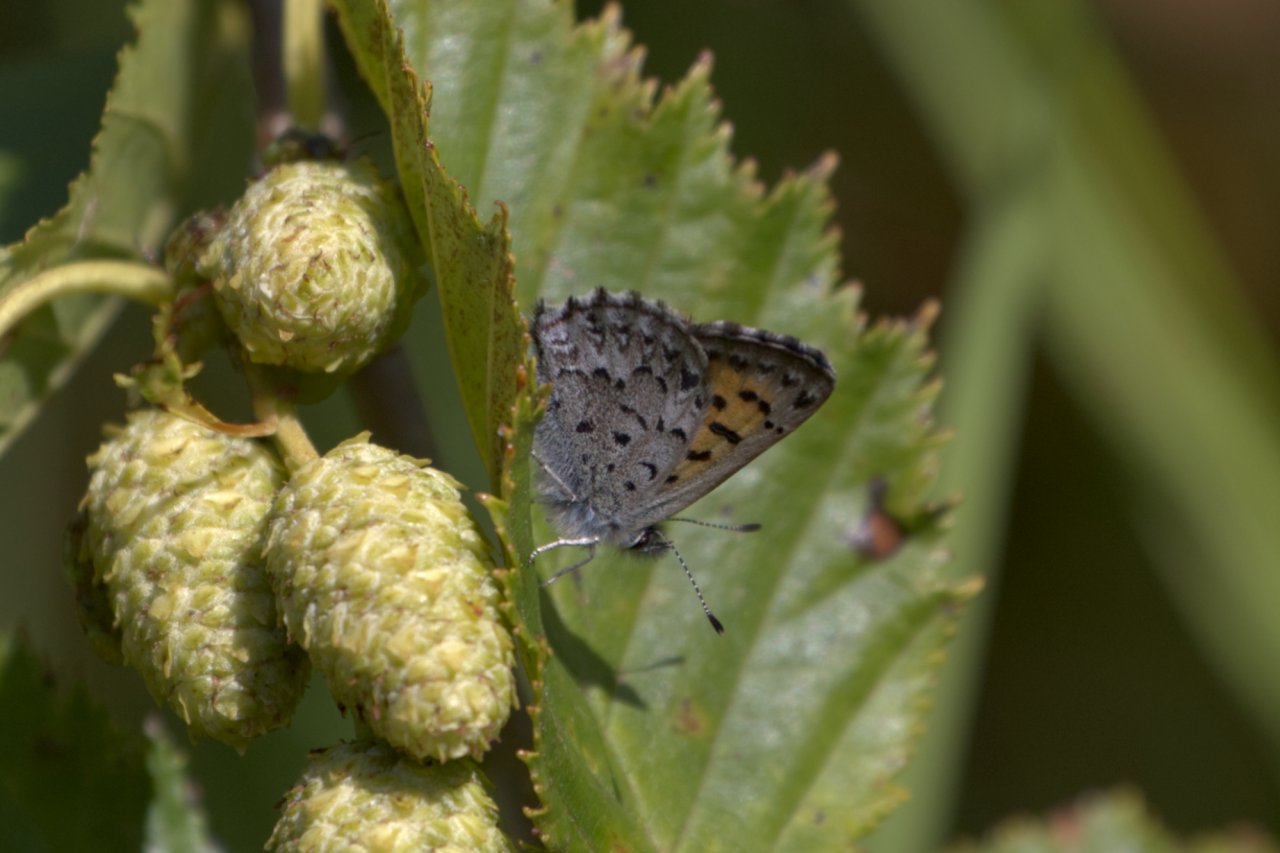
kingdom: Animalia
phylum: Arthropoda
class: Insecta
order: Lepidoptera
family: Lycaenidae
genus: Lycaena
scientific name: Lycaena mariposa
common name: Mariposa Copper
